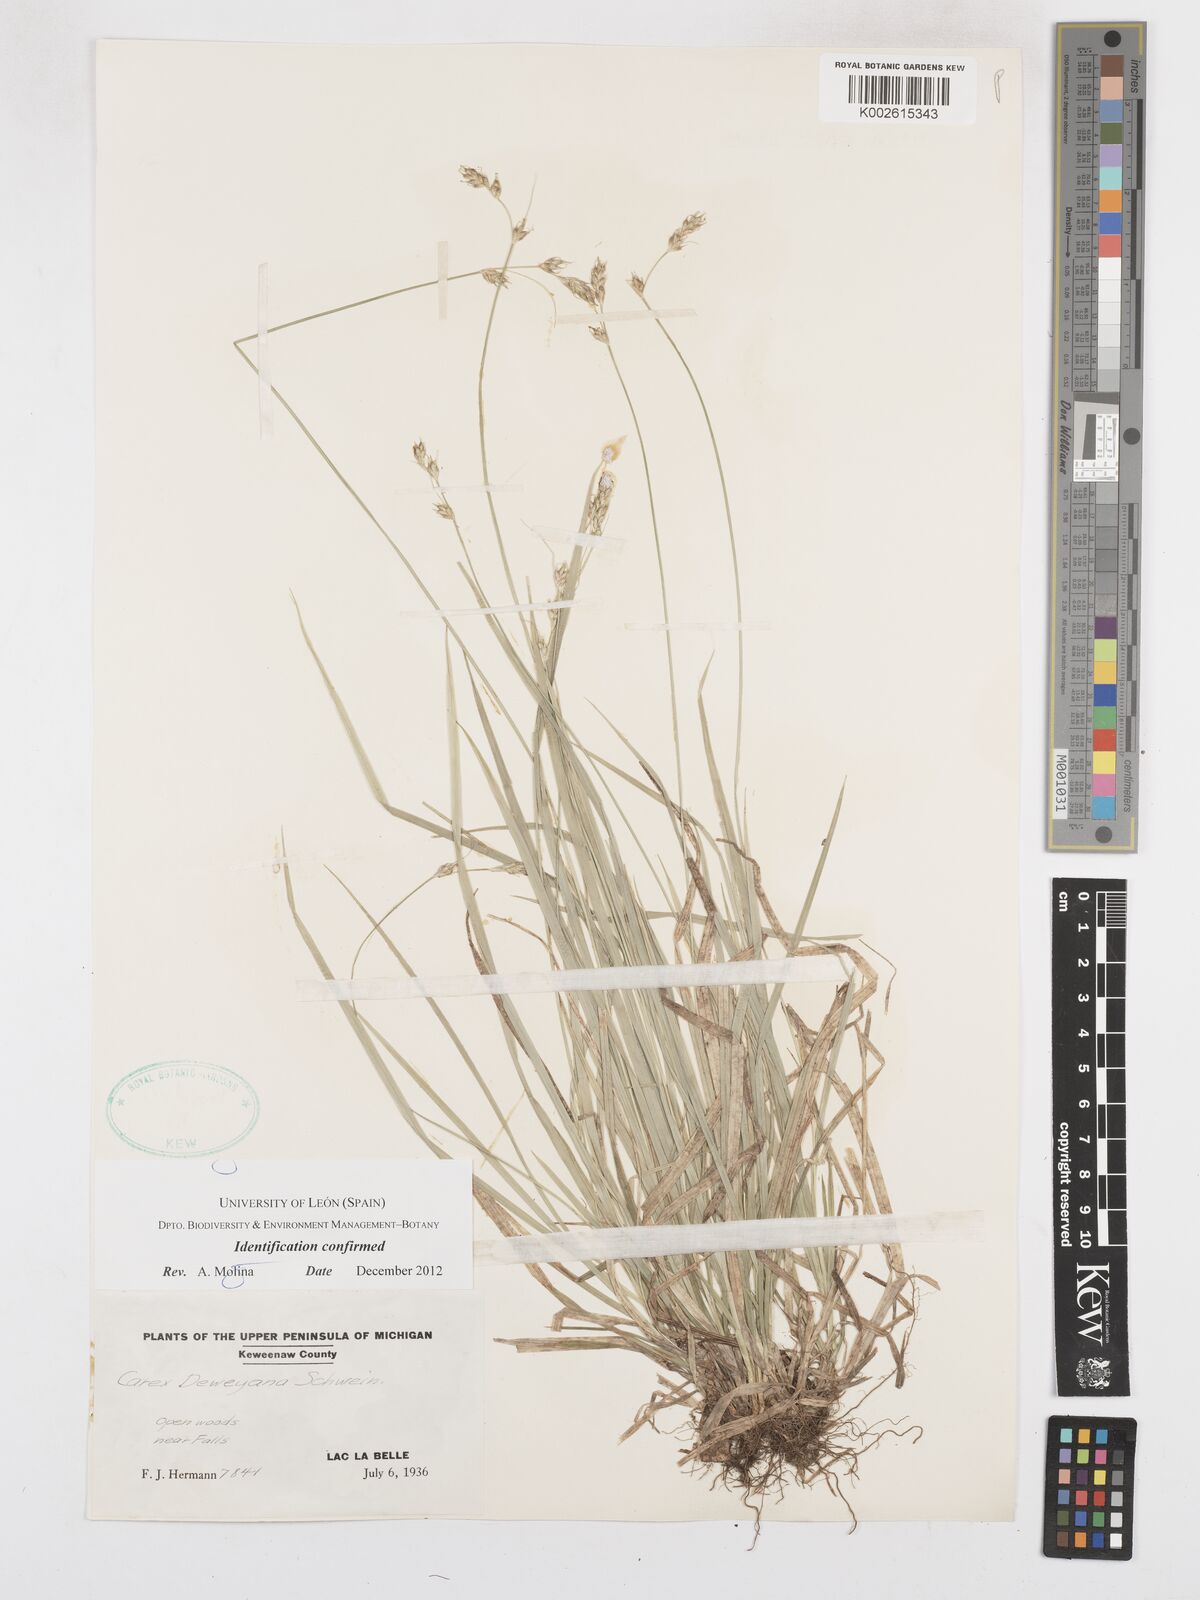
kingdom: Plantae
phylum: Tracheophyta
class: Liliopsida
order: Poales
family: Cyperaceae
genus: Carex
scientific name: Carex deweyana
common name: Dewey's sedge
